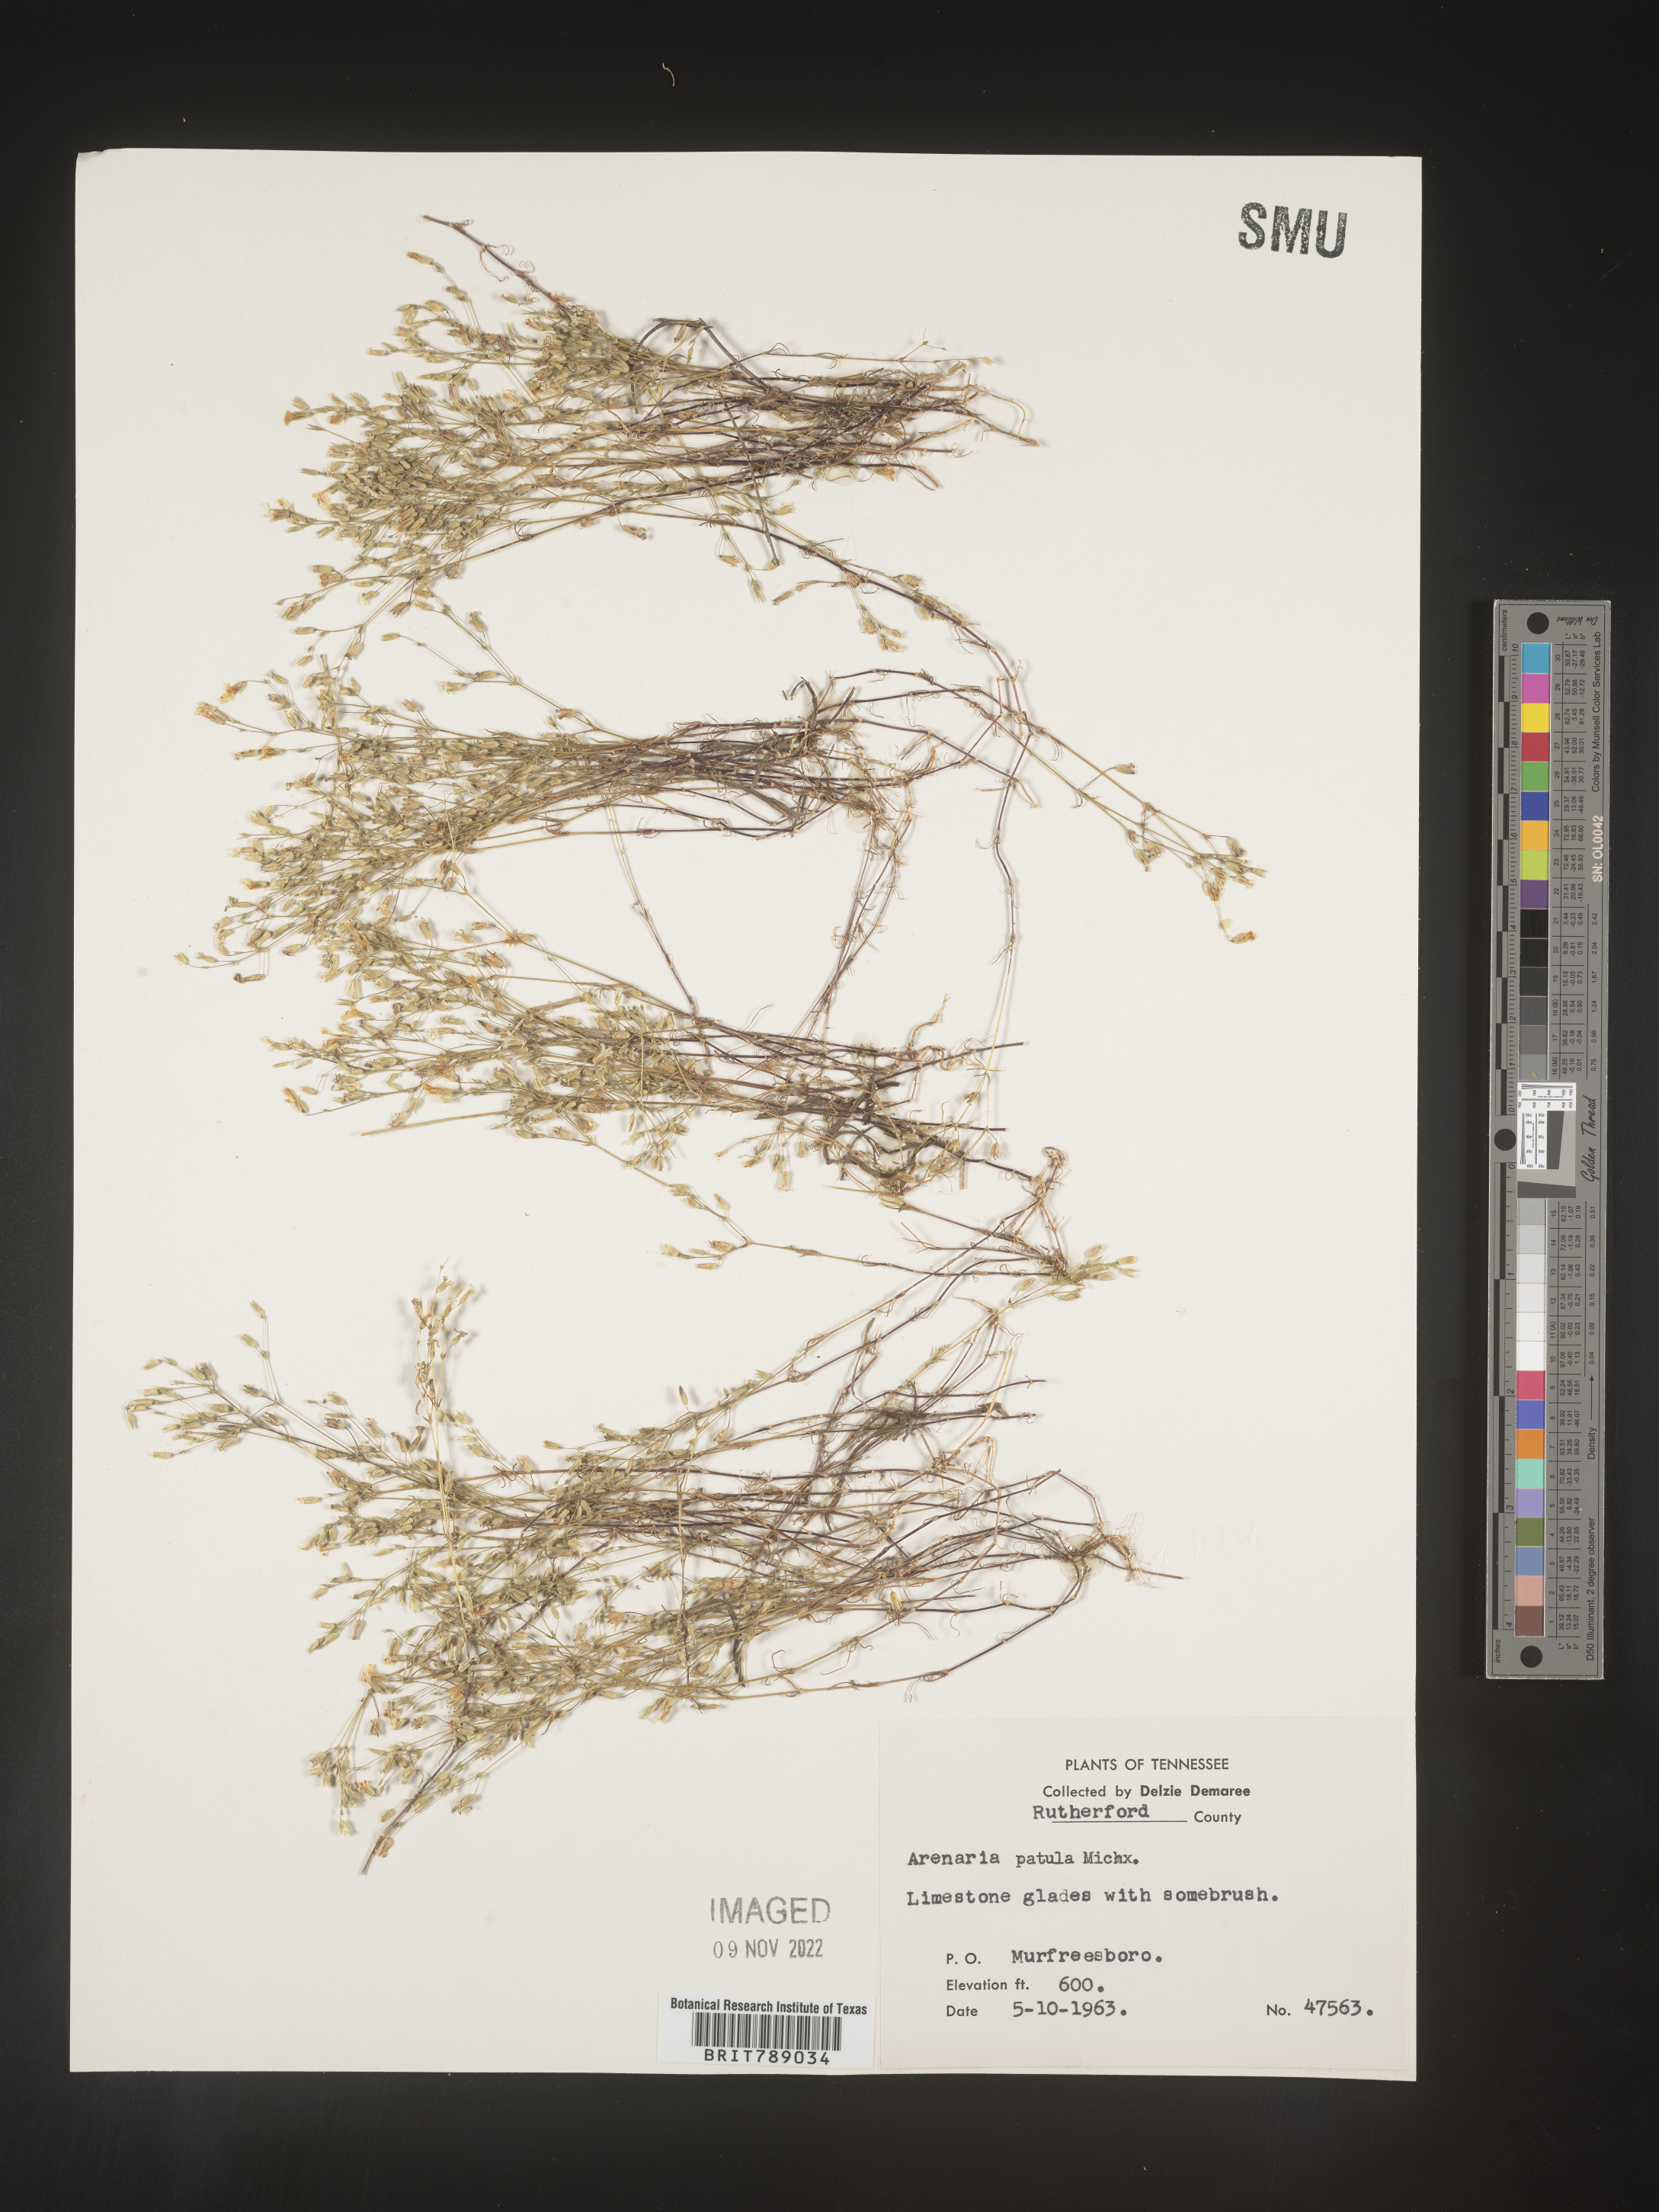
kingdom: Plantae
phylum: Tracheophyta
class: Magnoliopsida
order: Caryophyllales
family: Caryophyllaceae
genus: Mononeuria
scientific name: Mononeuria patula
